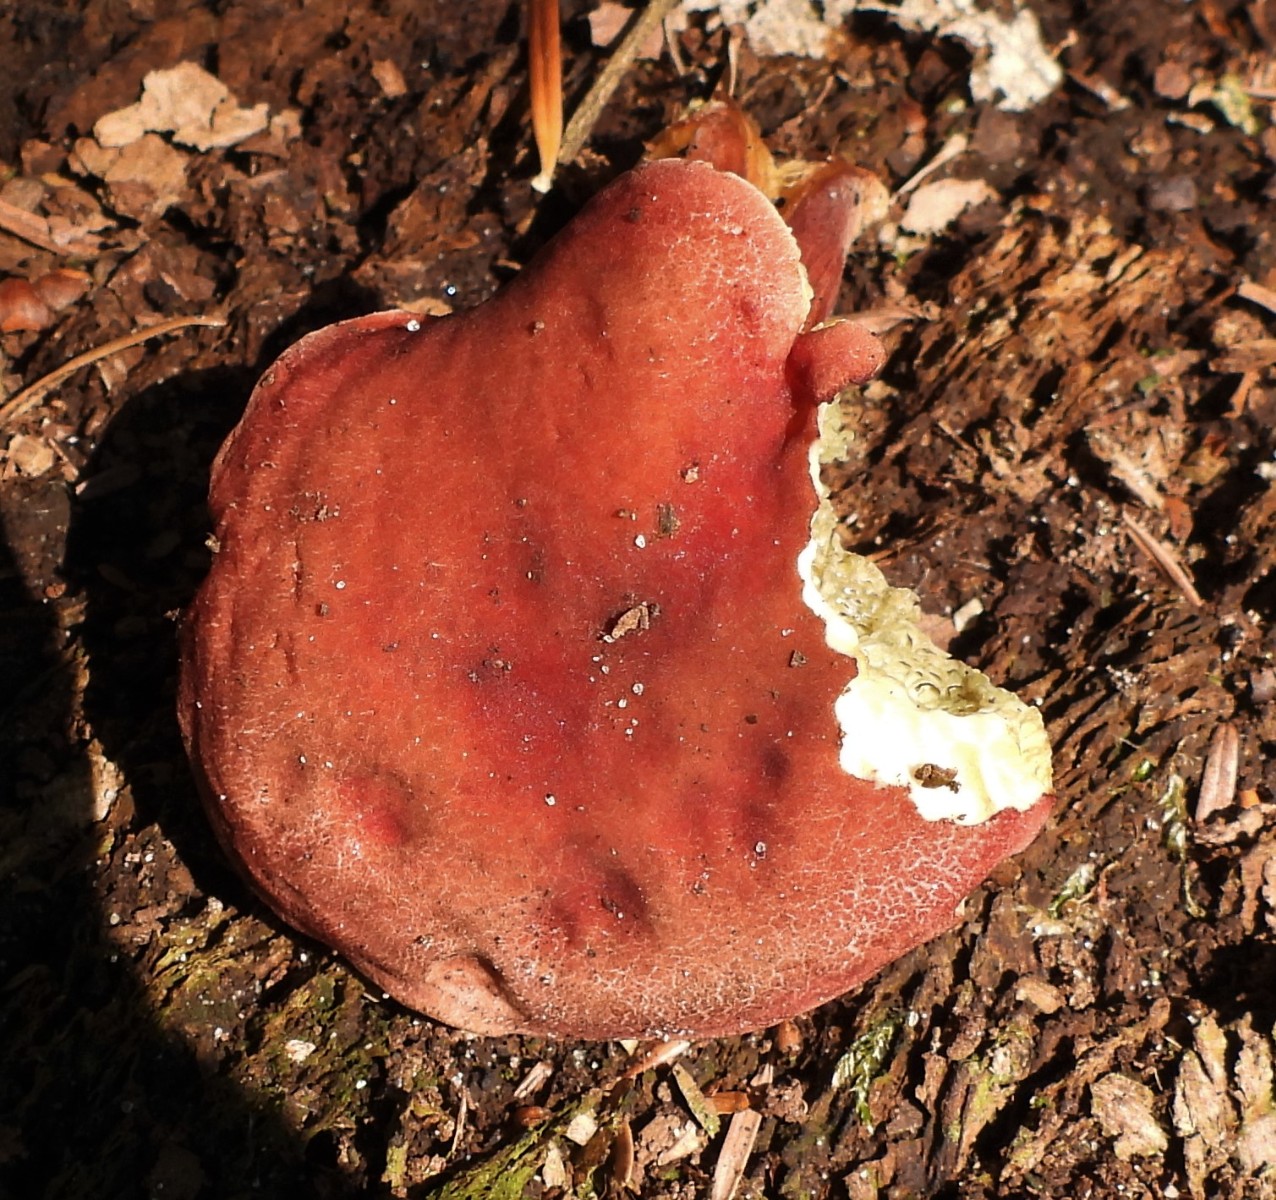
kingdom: Fungi
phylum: Basidiomycota
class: Agaricomycetes
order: Boletales
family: Boletaceae
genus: Hortiboletus
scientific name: Hortiboletus rubellus
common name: blodrød rørhat
